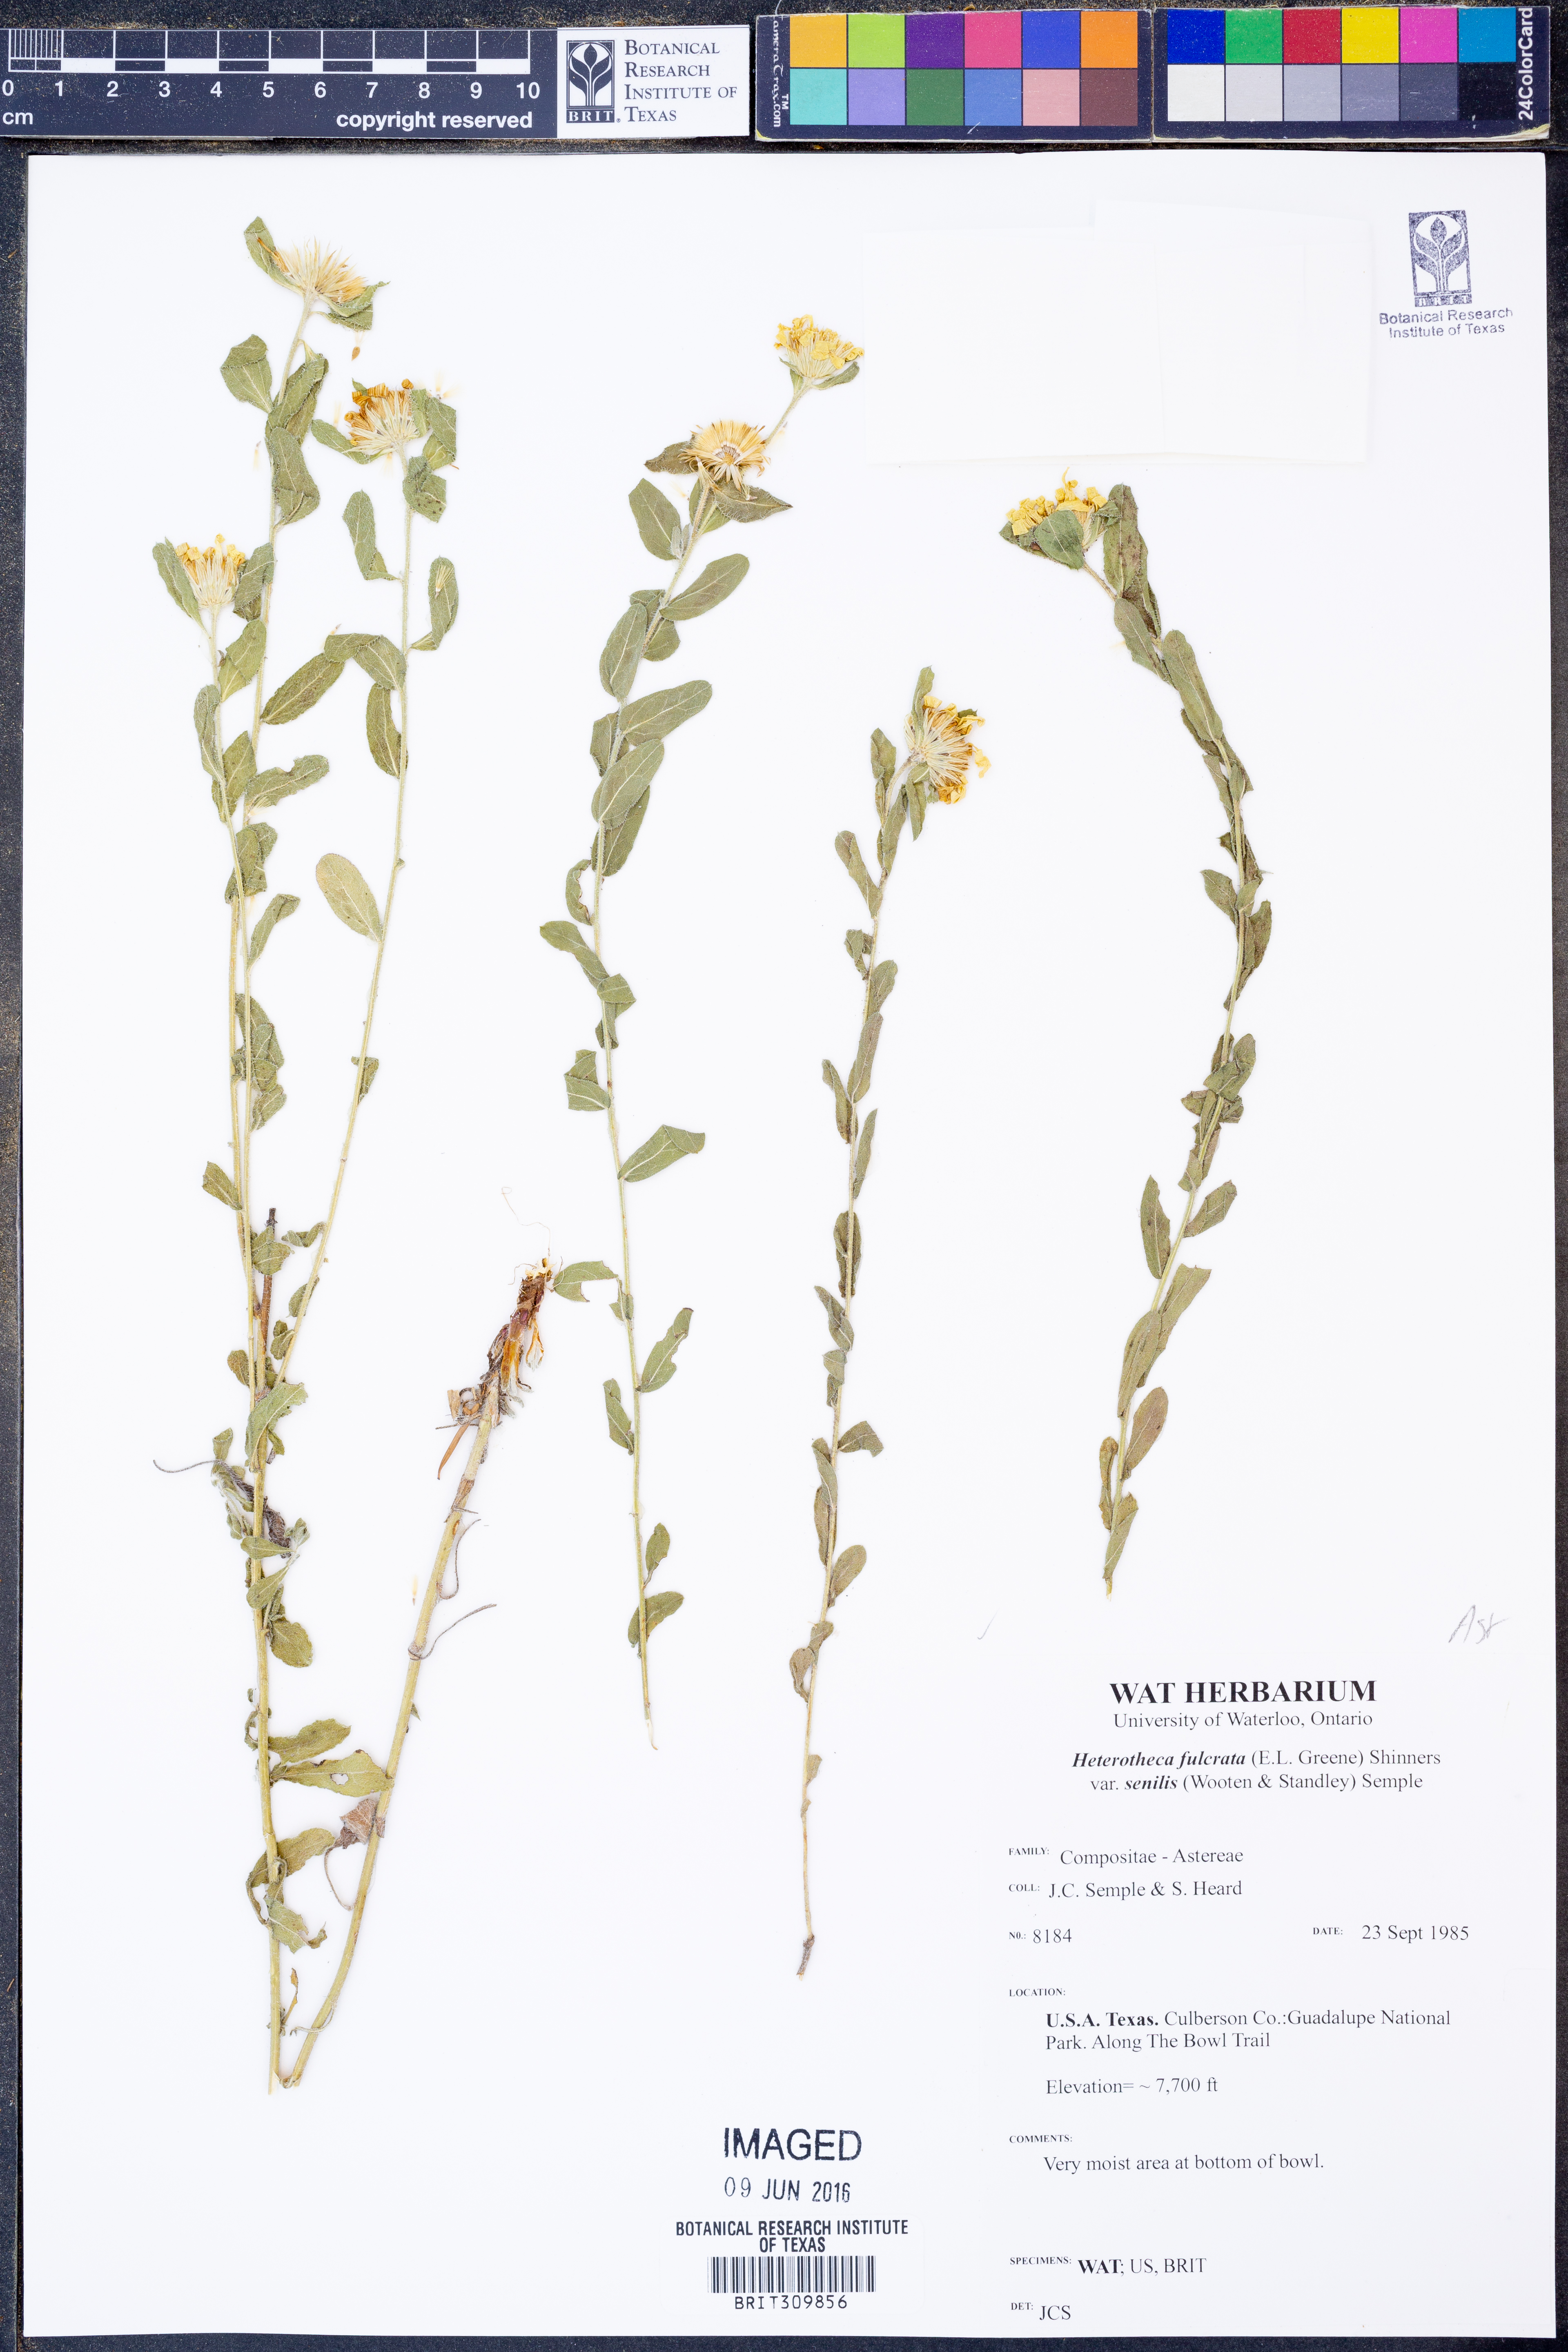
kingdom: Plantae
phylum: Tracheophyta
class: Magnoliopsida
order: Asterales
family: Asteraceae
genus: Heterotheca
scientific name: Heterotheca fulcrata
